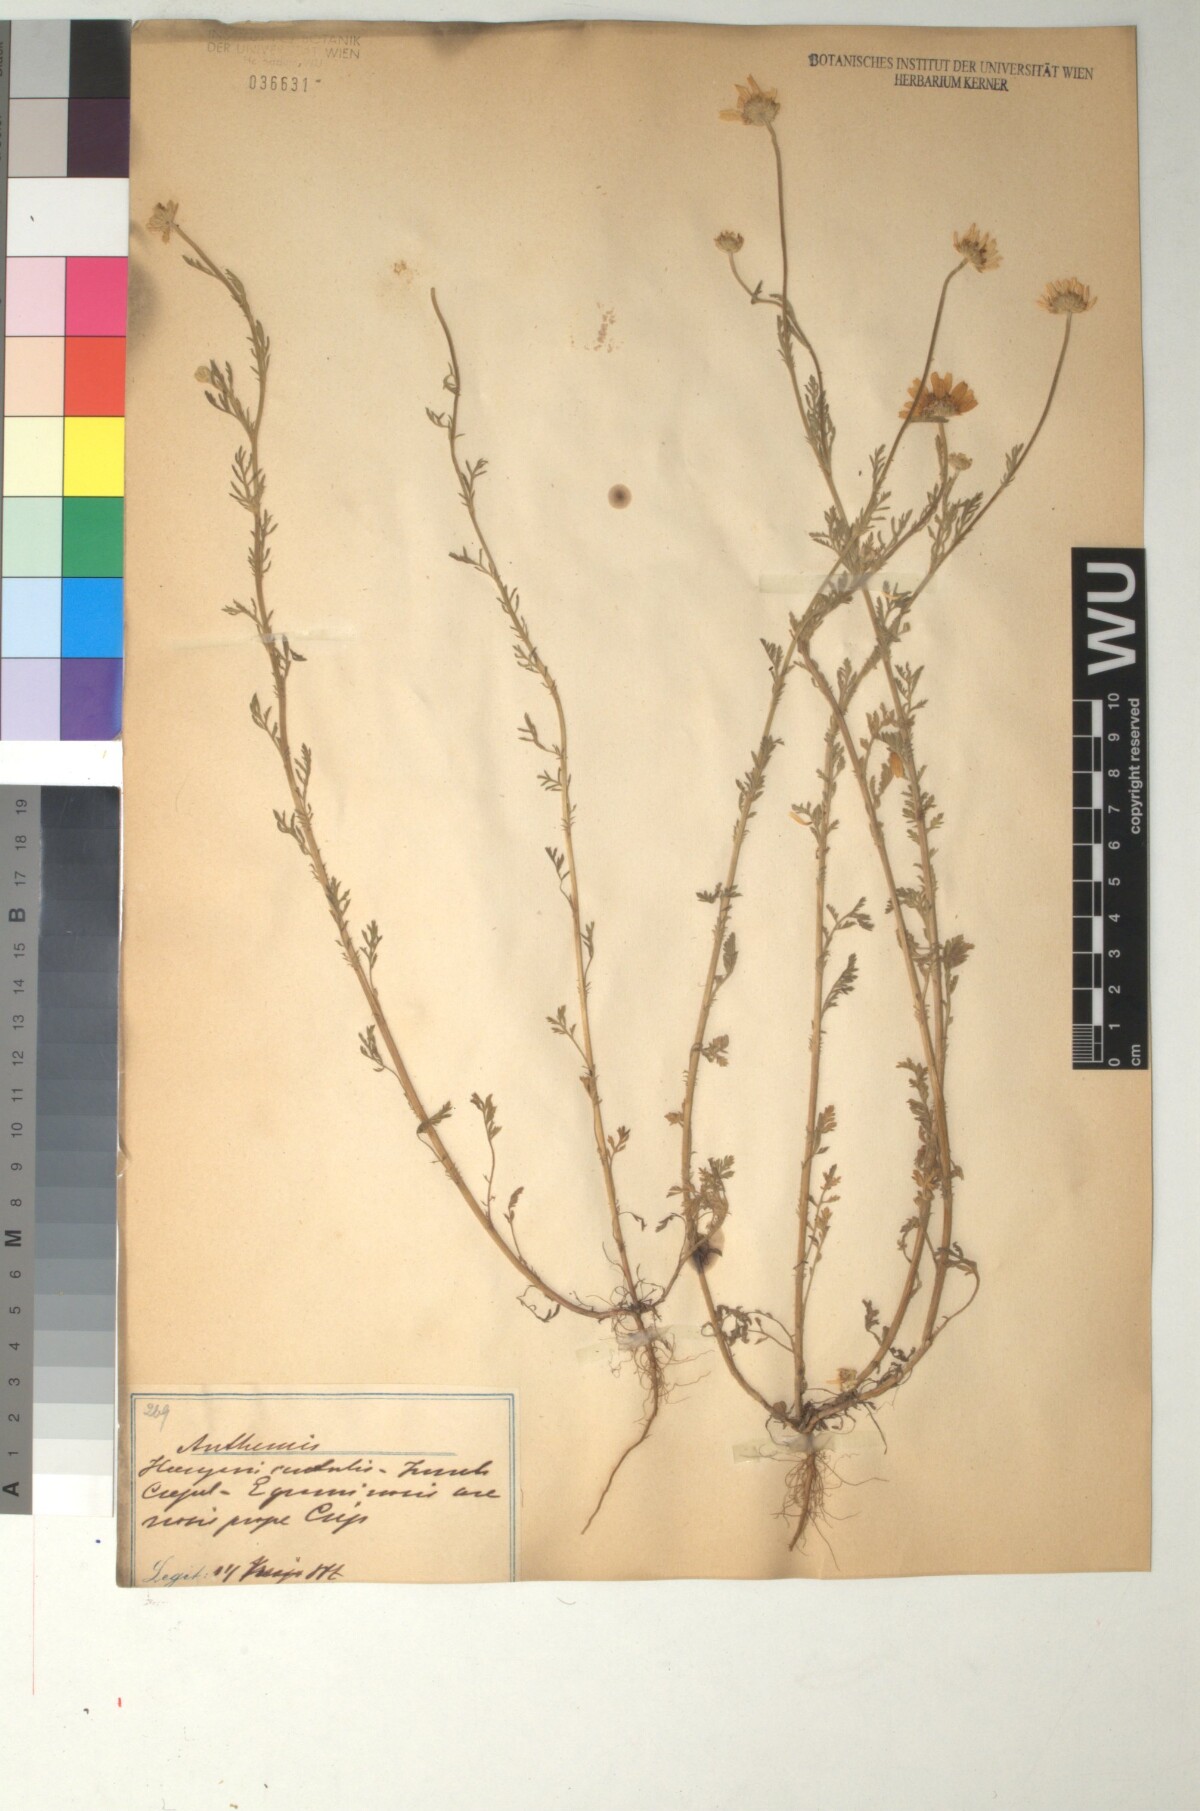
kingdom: Plantae
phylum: Tracheophyta
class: Magnoliopsida
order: Asterales
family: Asteraceae
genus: Anthemis
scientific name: Anthemis ruthenica
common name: Eastern chamomile
